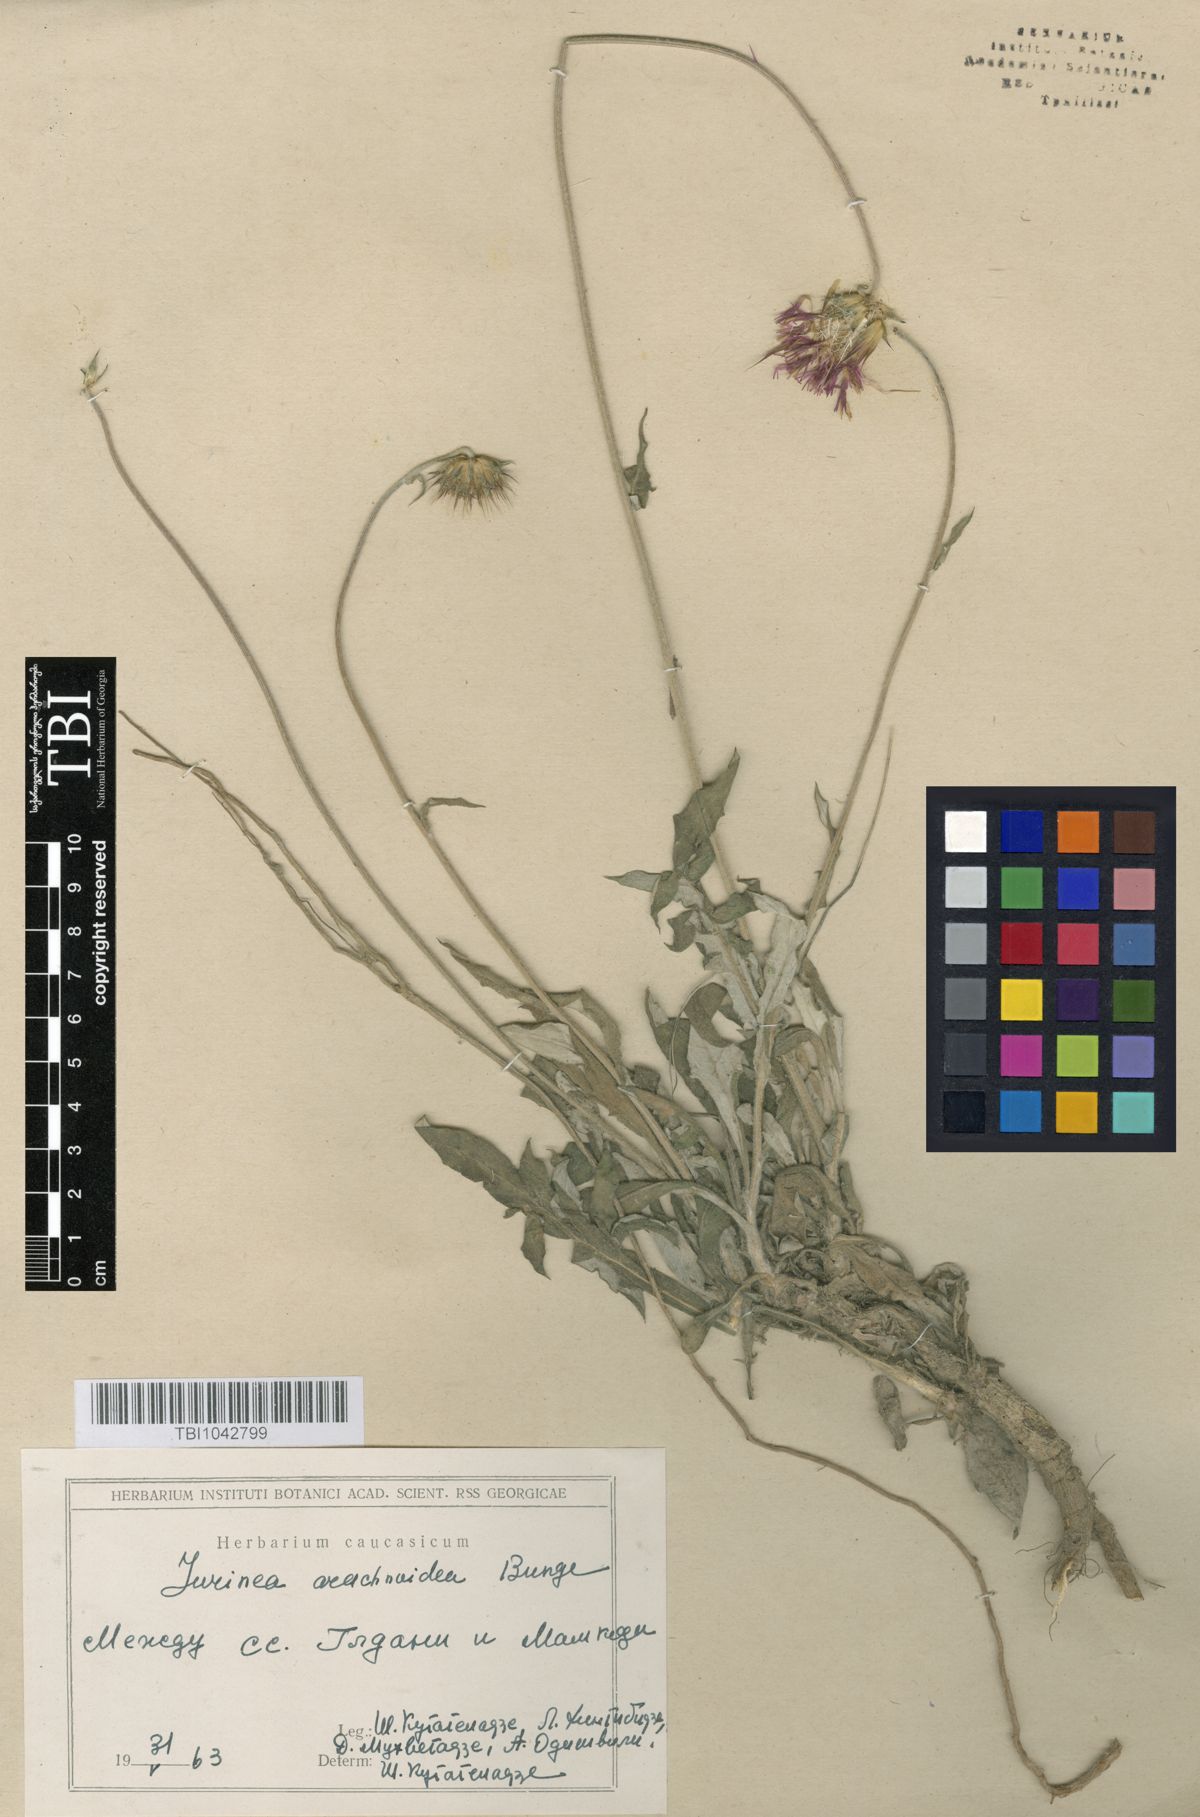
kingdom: Plantae
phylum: Tracheophyta
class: Magnoliopsida
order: Asterales
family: Asteraceae
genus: Jurinea
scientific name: Jurinea blanda
